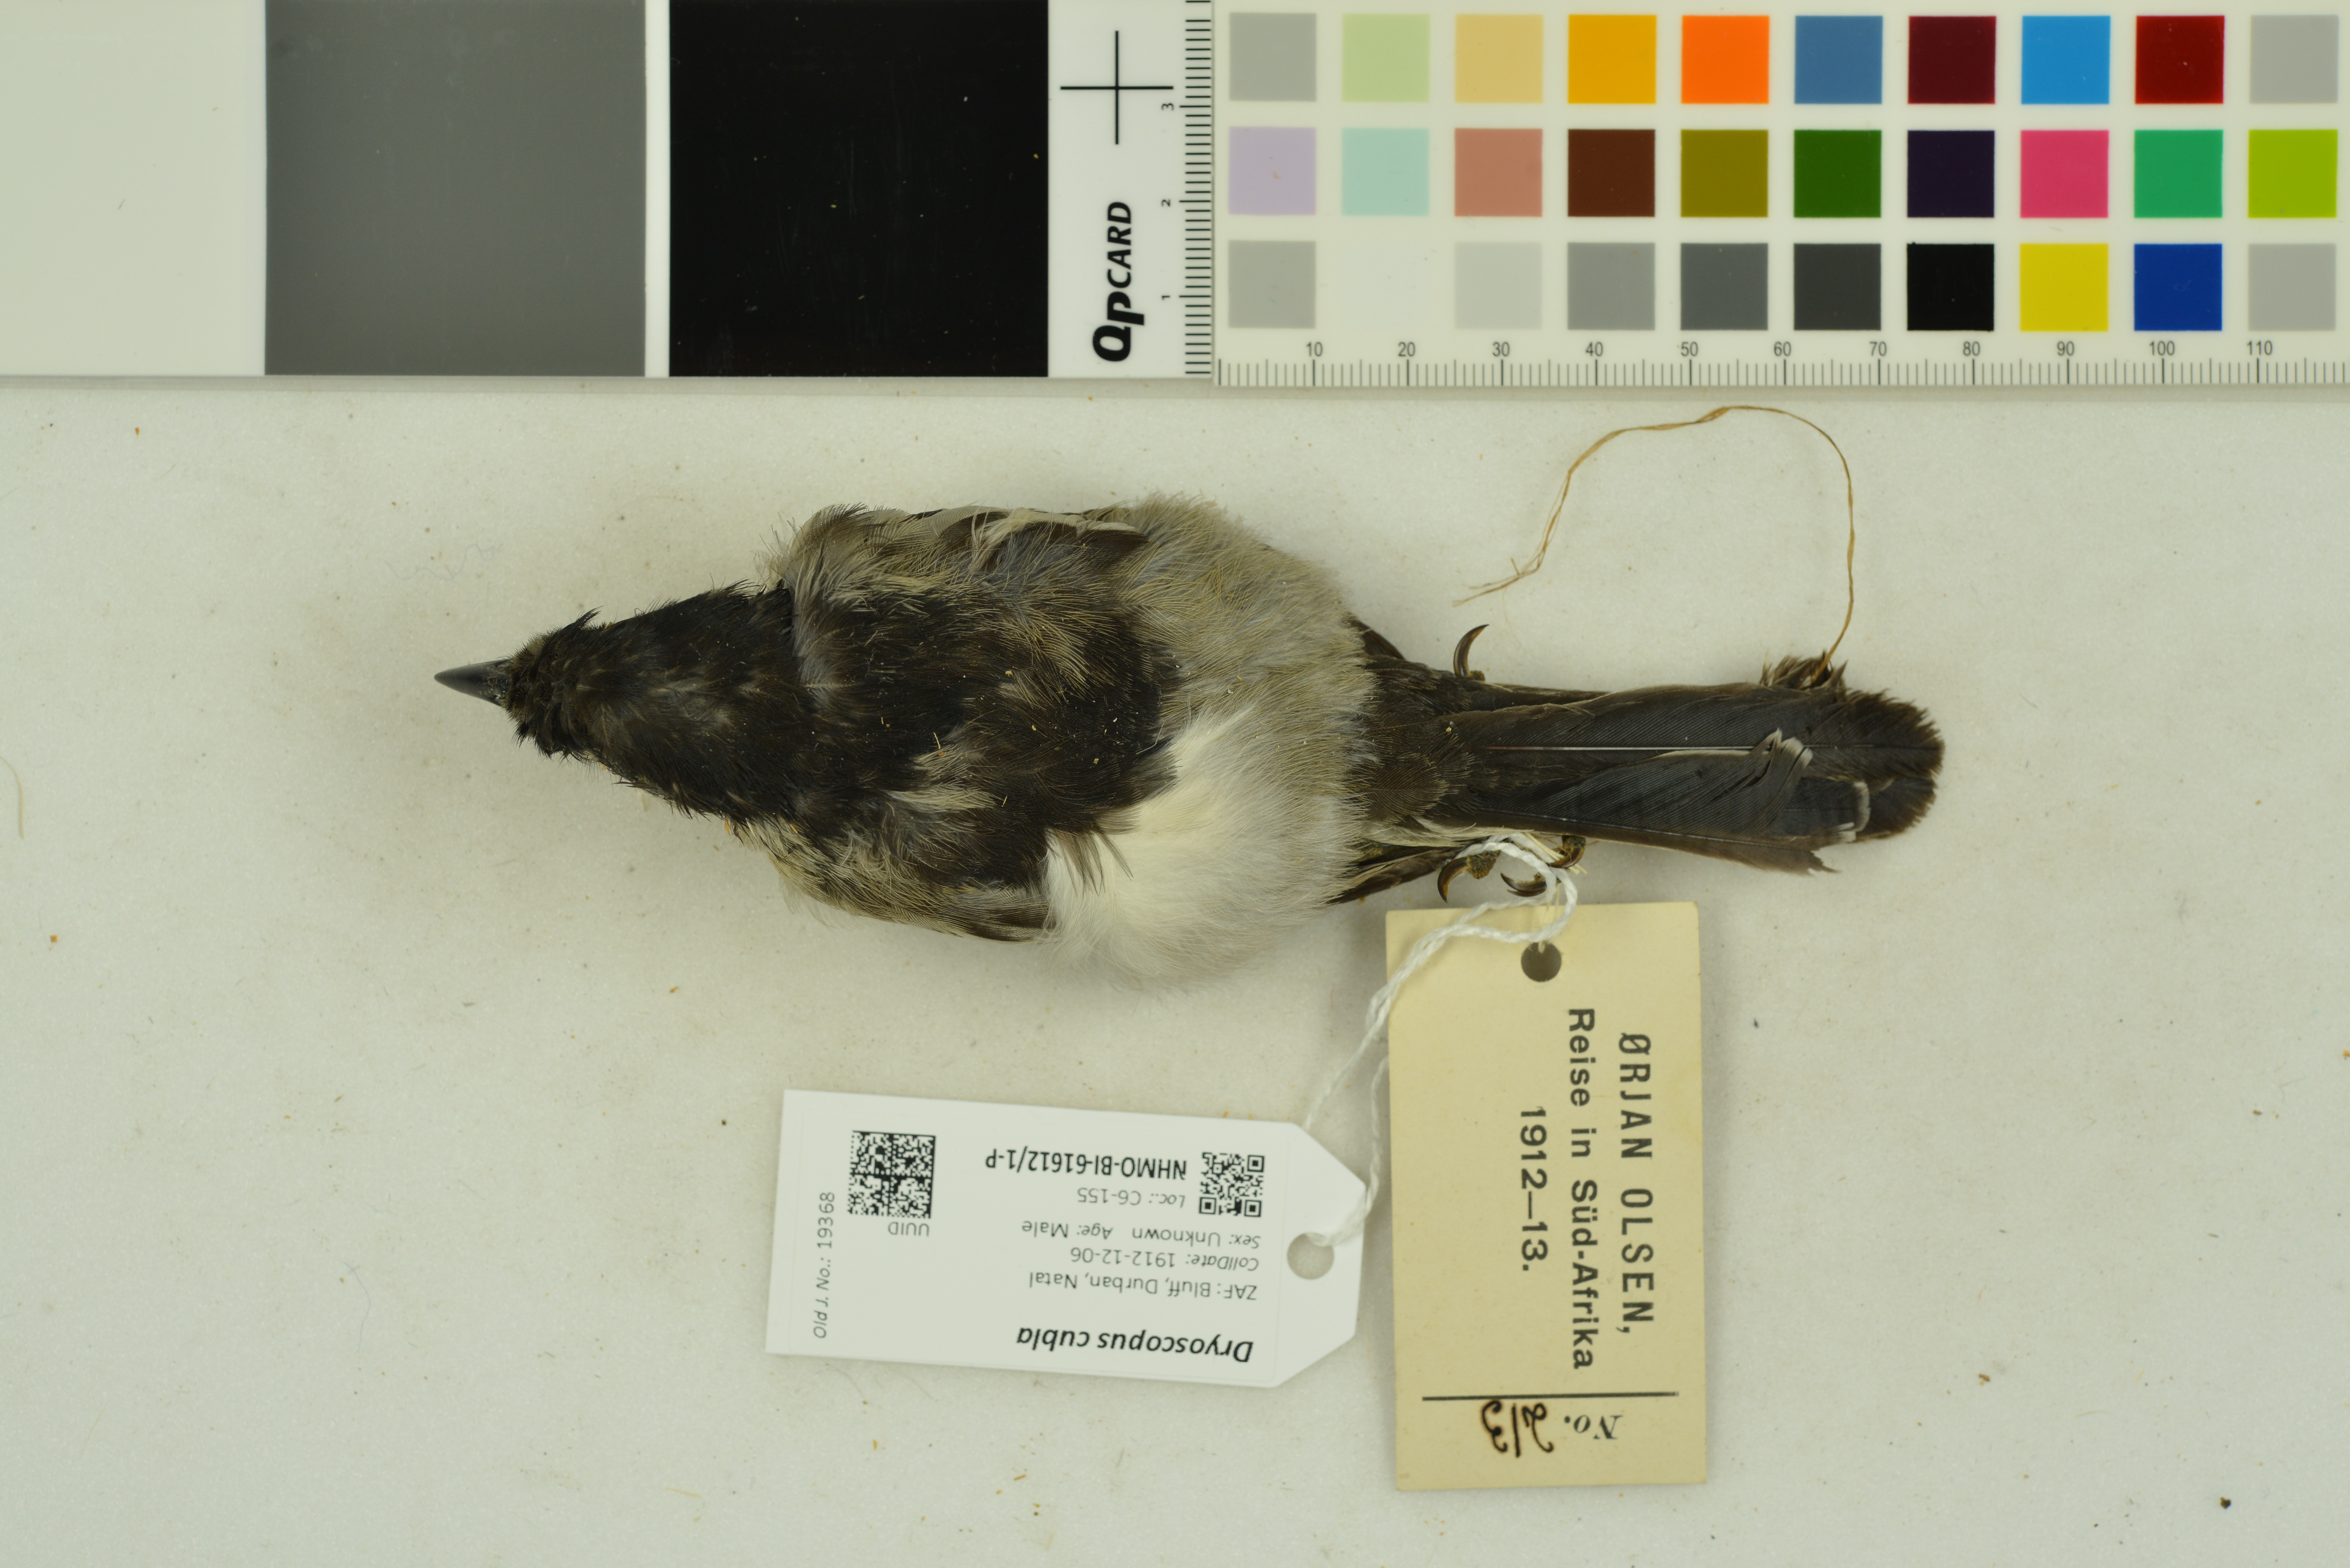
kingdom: Animalia
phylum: Chordata
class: Aves
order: Passeriformes
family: Malaconotidae
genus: Dryoscopus
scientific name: Dryoscopus cubla
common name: Black-backed puffback
